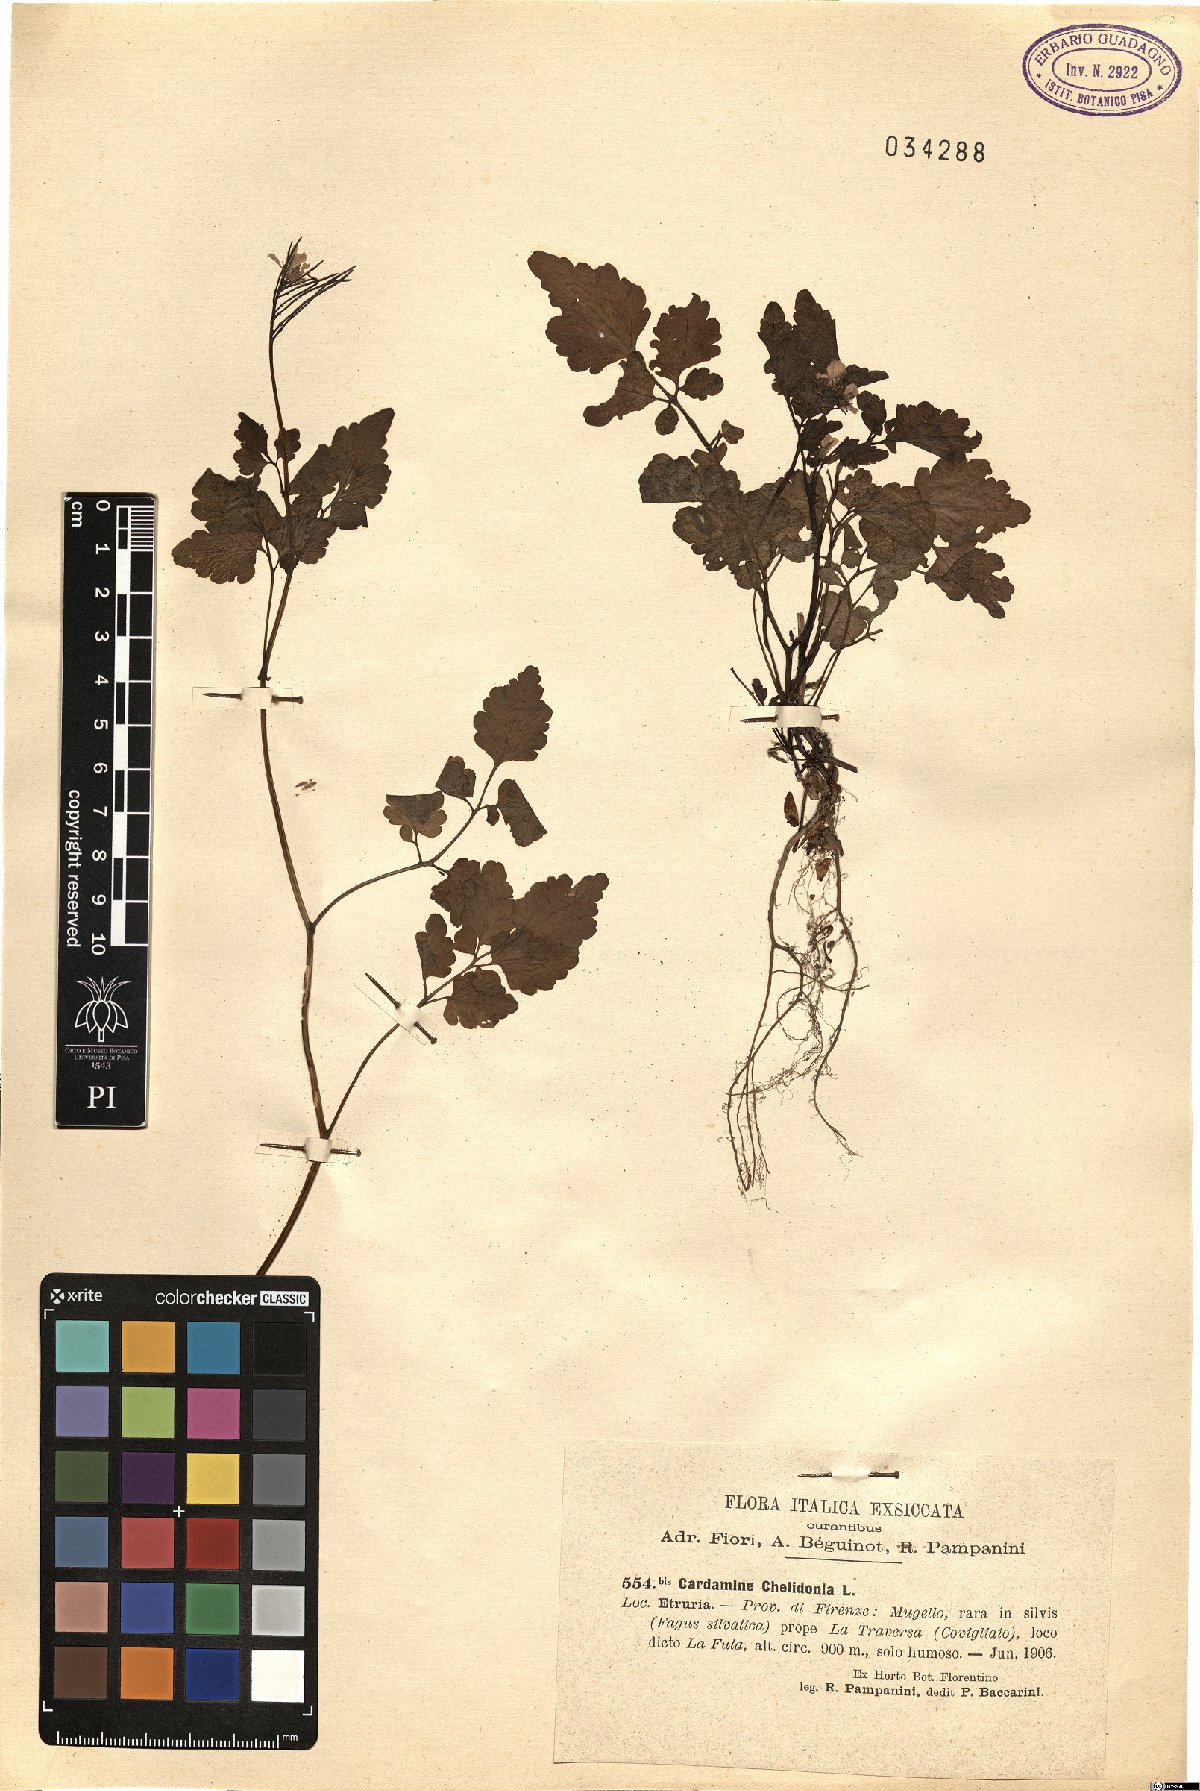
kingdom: Plantae
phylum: Tracheophyta
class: Magnoliopsida
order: Brassicales
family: Brassicaceae
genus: Cardamine
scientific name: Cardamine chelidonia
